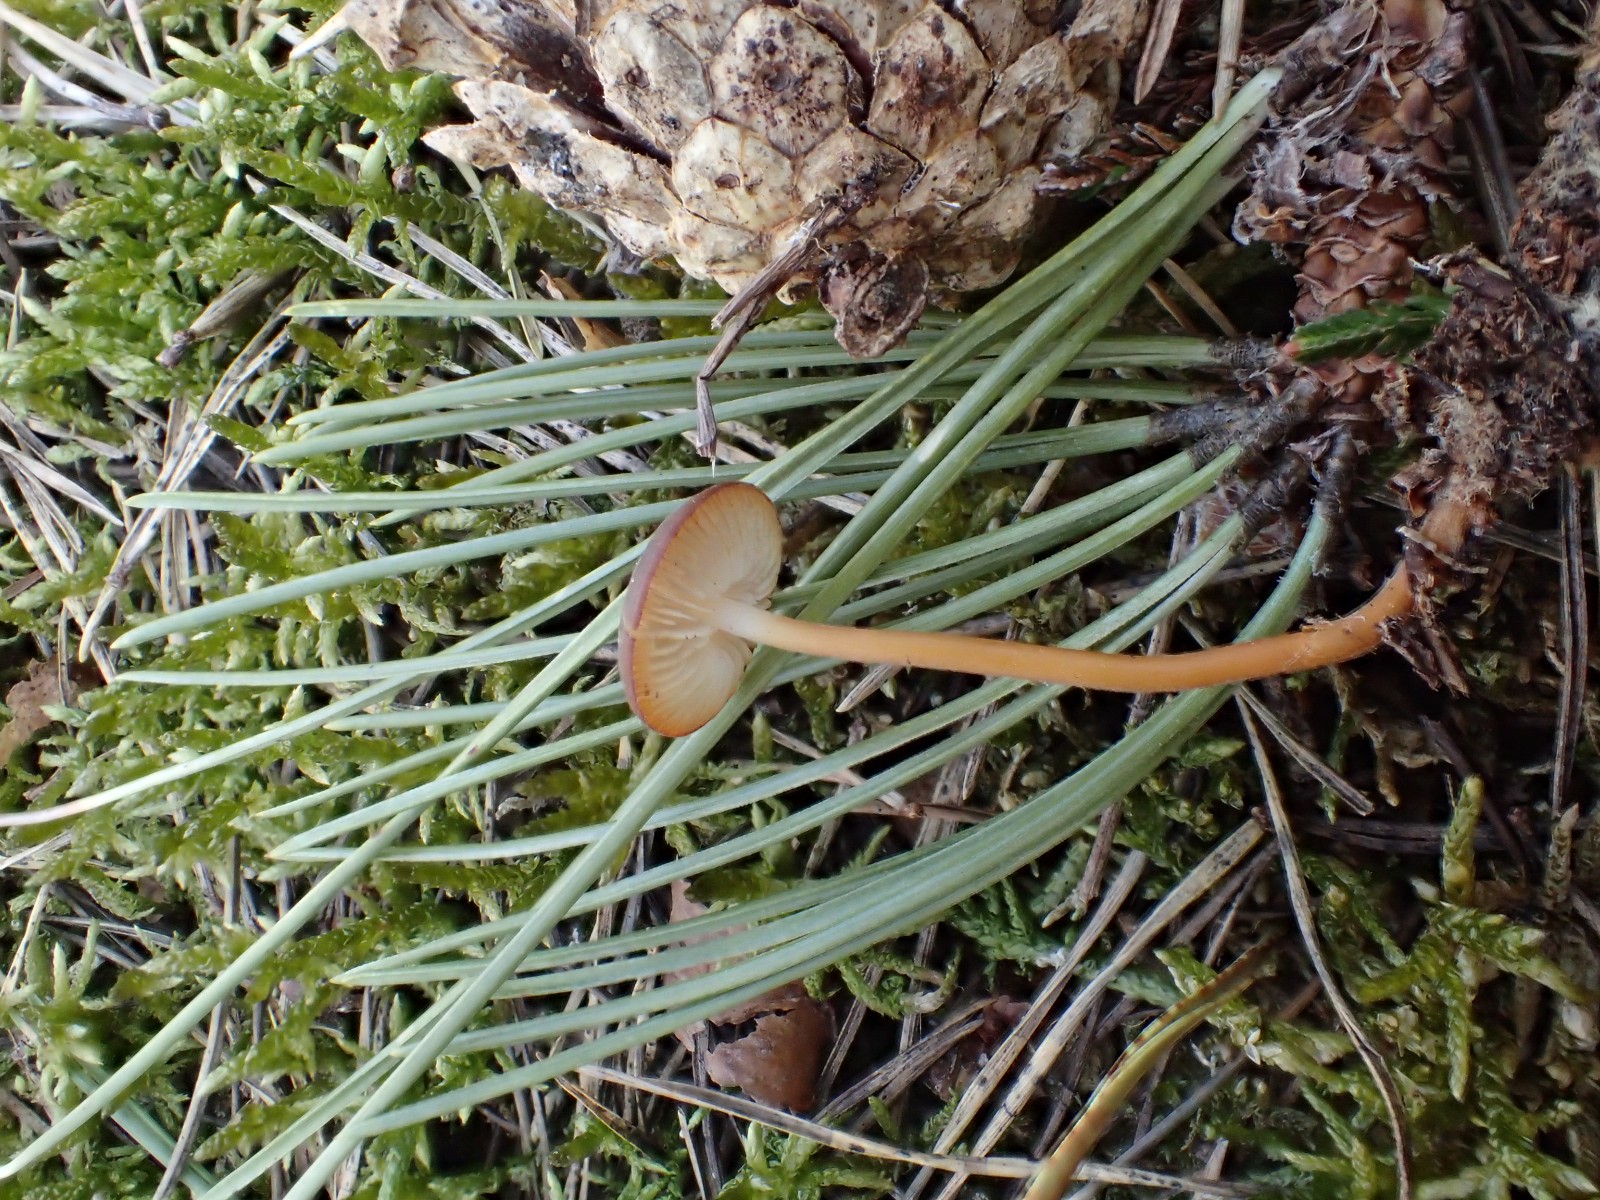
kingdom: Fungi
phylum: Basidiomycota
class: Agaricomycetes
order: Agaricales
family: Physalacriaceae
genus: Strobilurus
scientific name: Strobilurus
